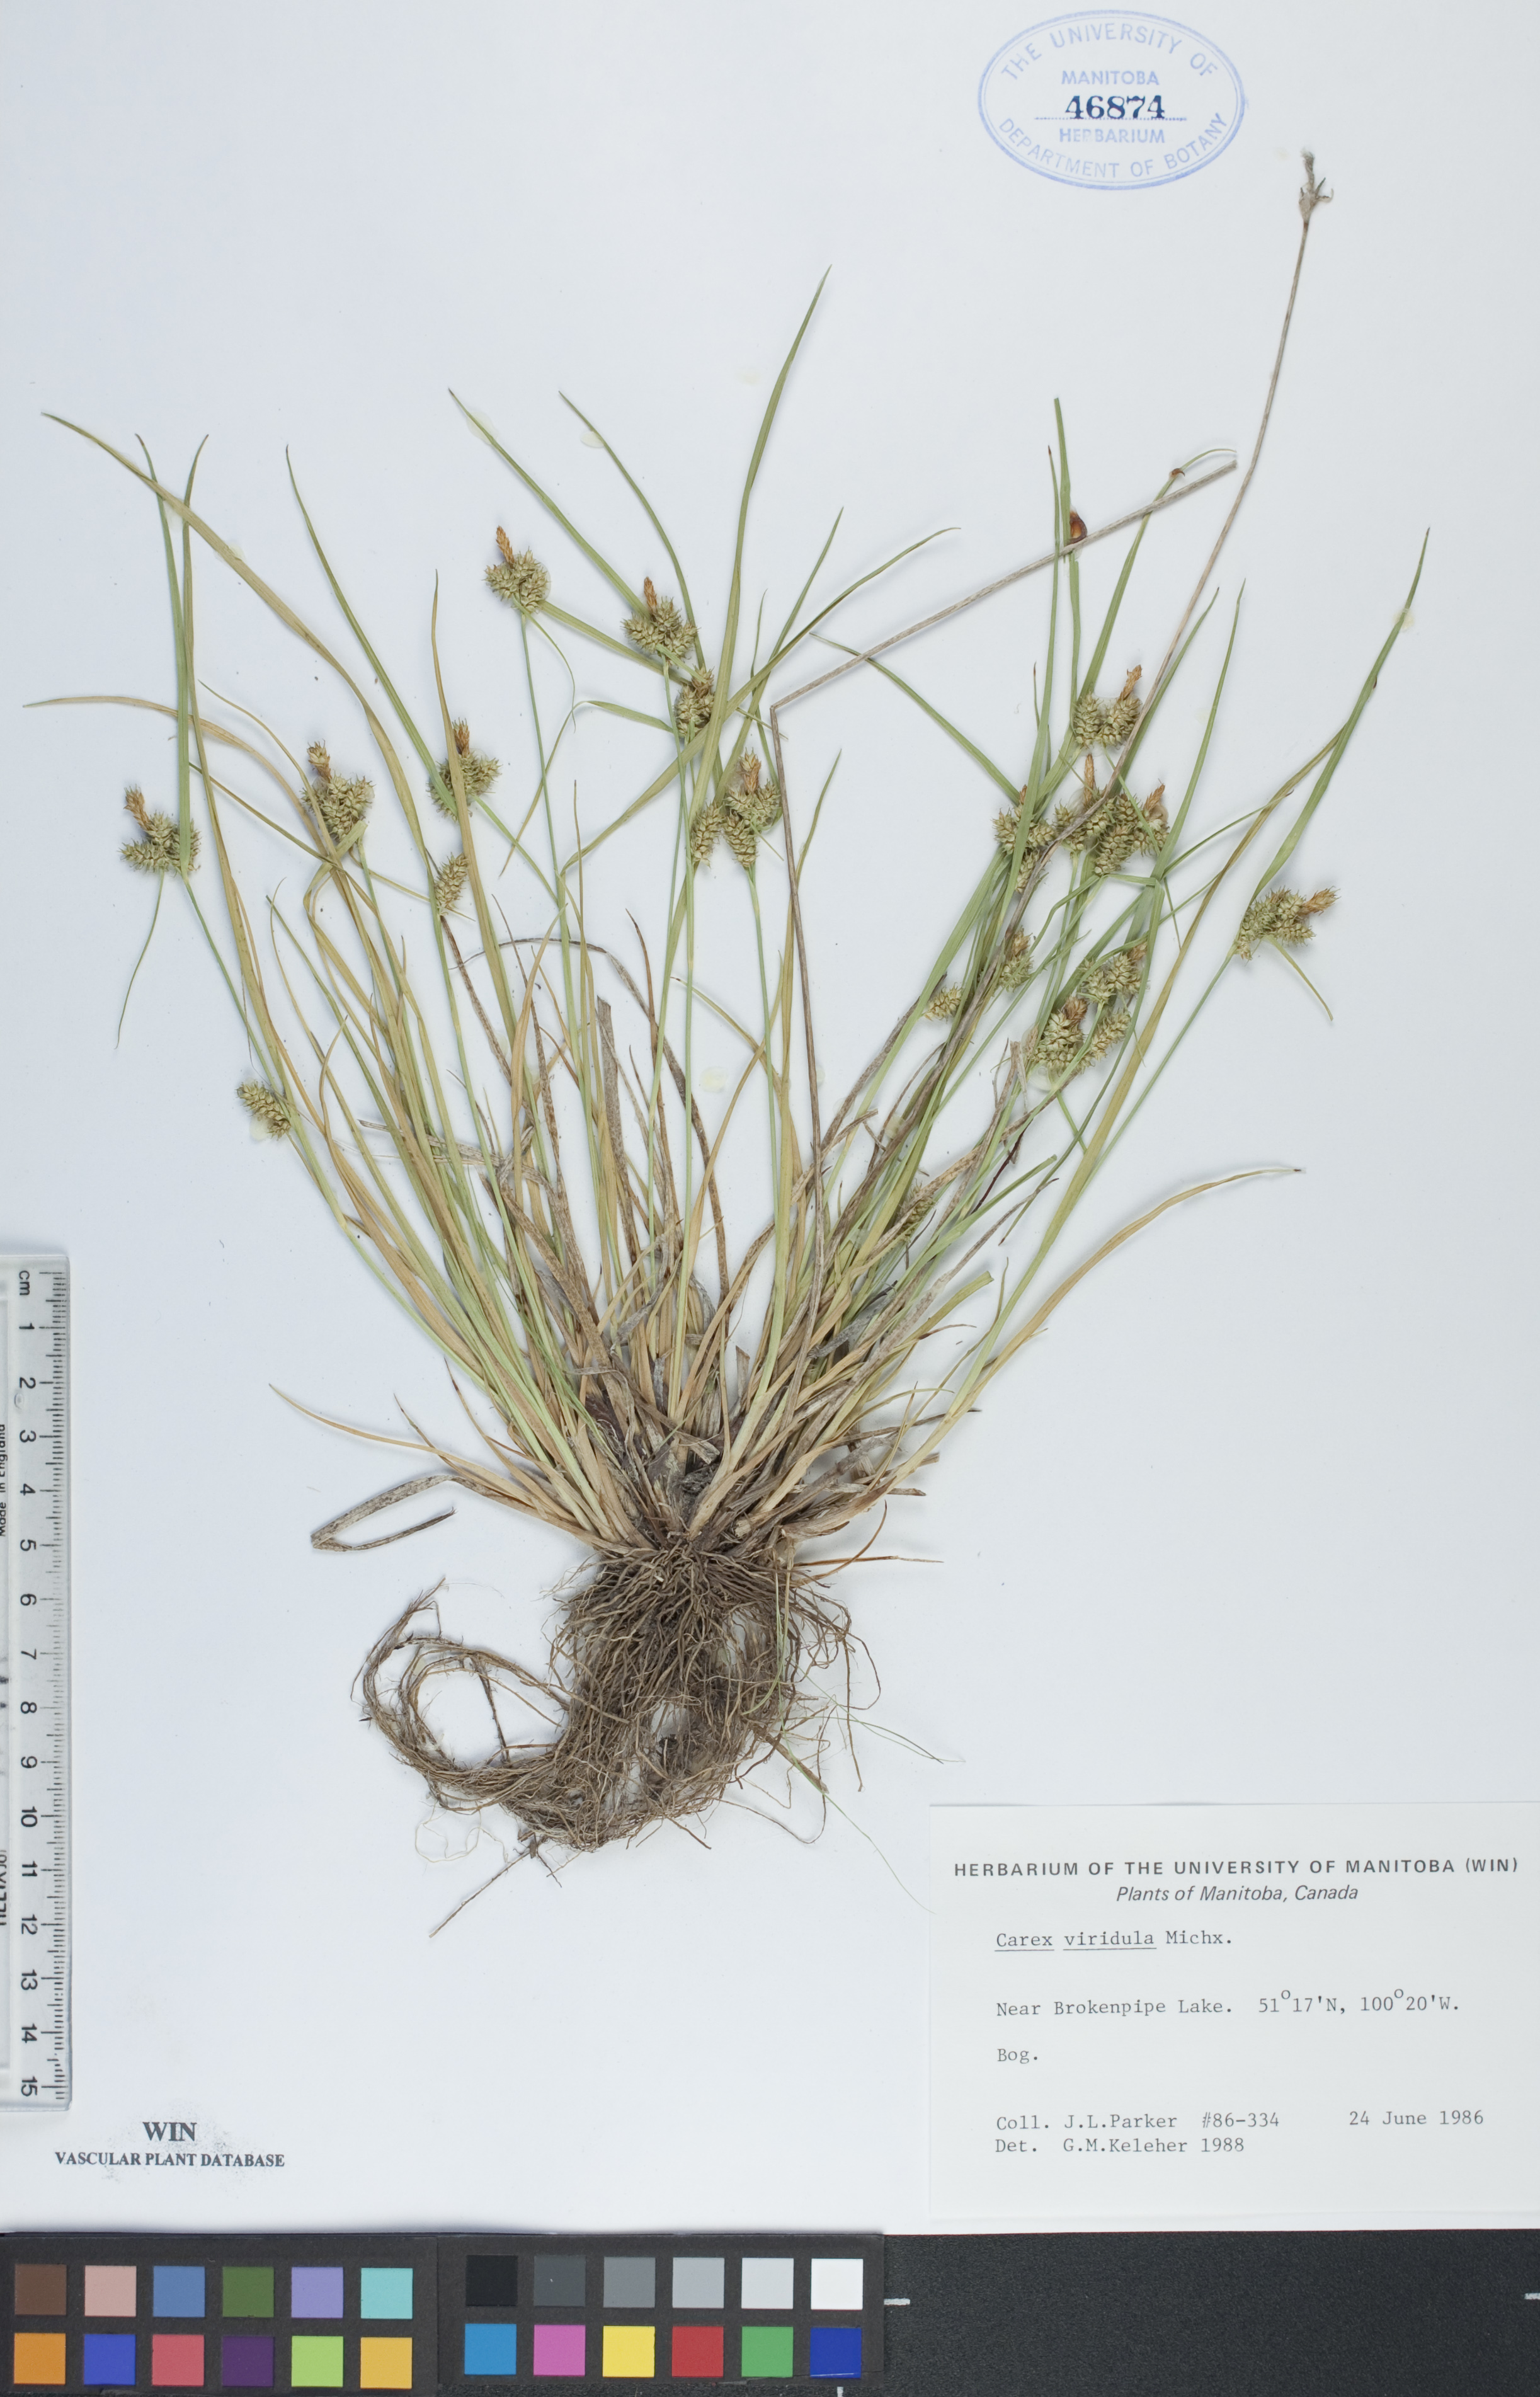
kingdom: Plantae
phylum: Tracheophyta
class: Liliopsida
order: Poales
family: Cyperaceae
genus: Carex
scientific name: Carex oederi
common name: Common & small-fruited yellow-sedge
